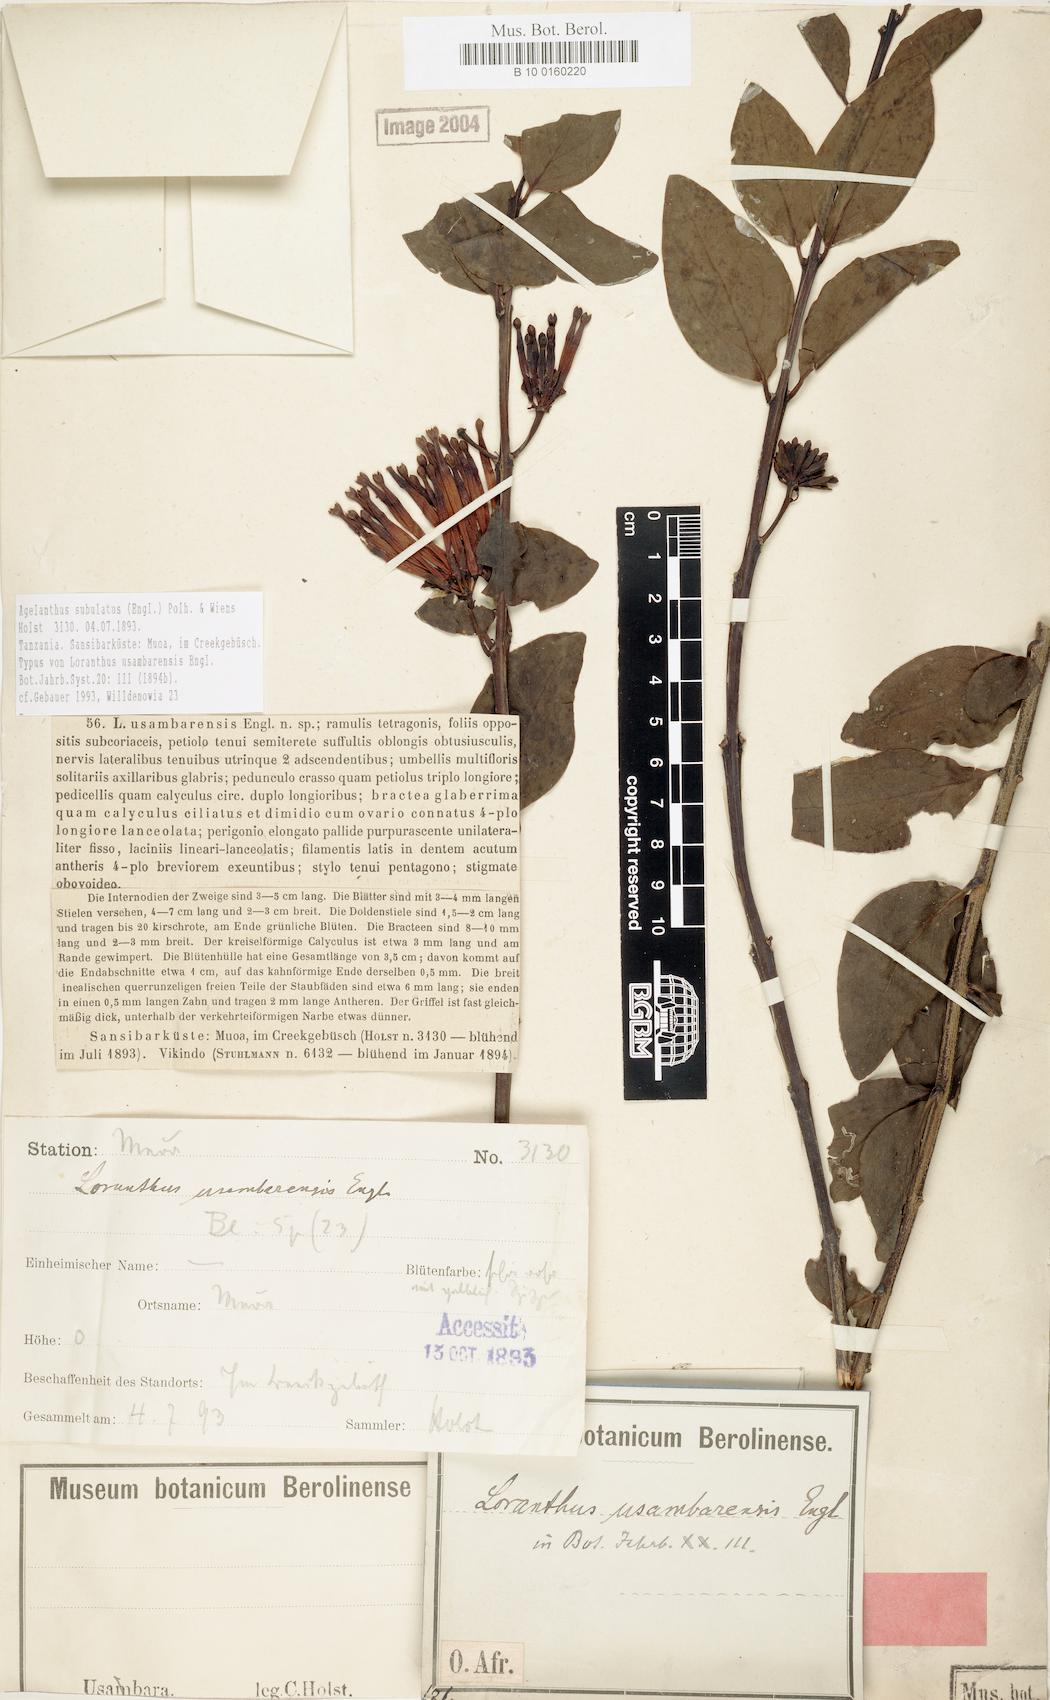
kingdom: Plantae
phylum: Tracheophyta
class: Magnoliopsida
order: Santalales
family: Loranthaceae
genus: Agelanthus
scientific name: Agelanthus subulatus
